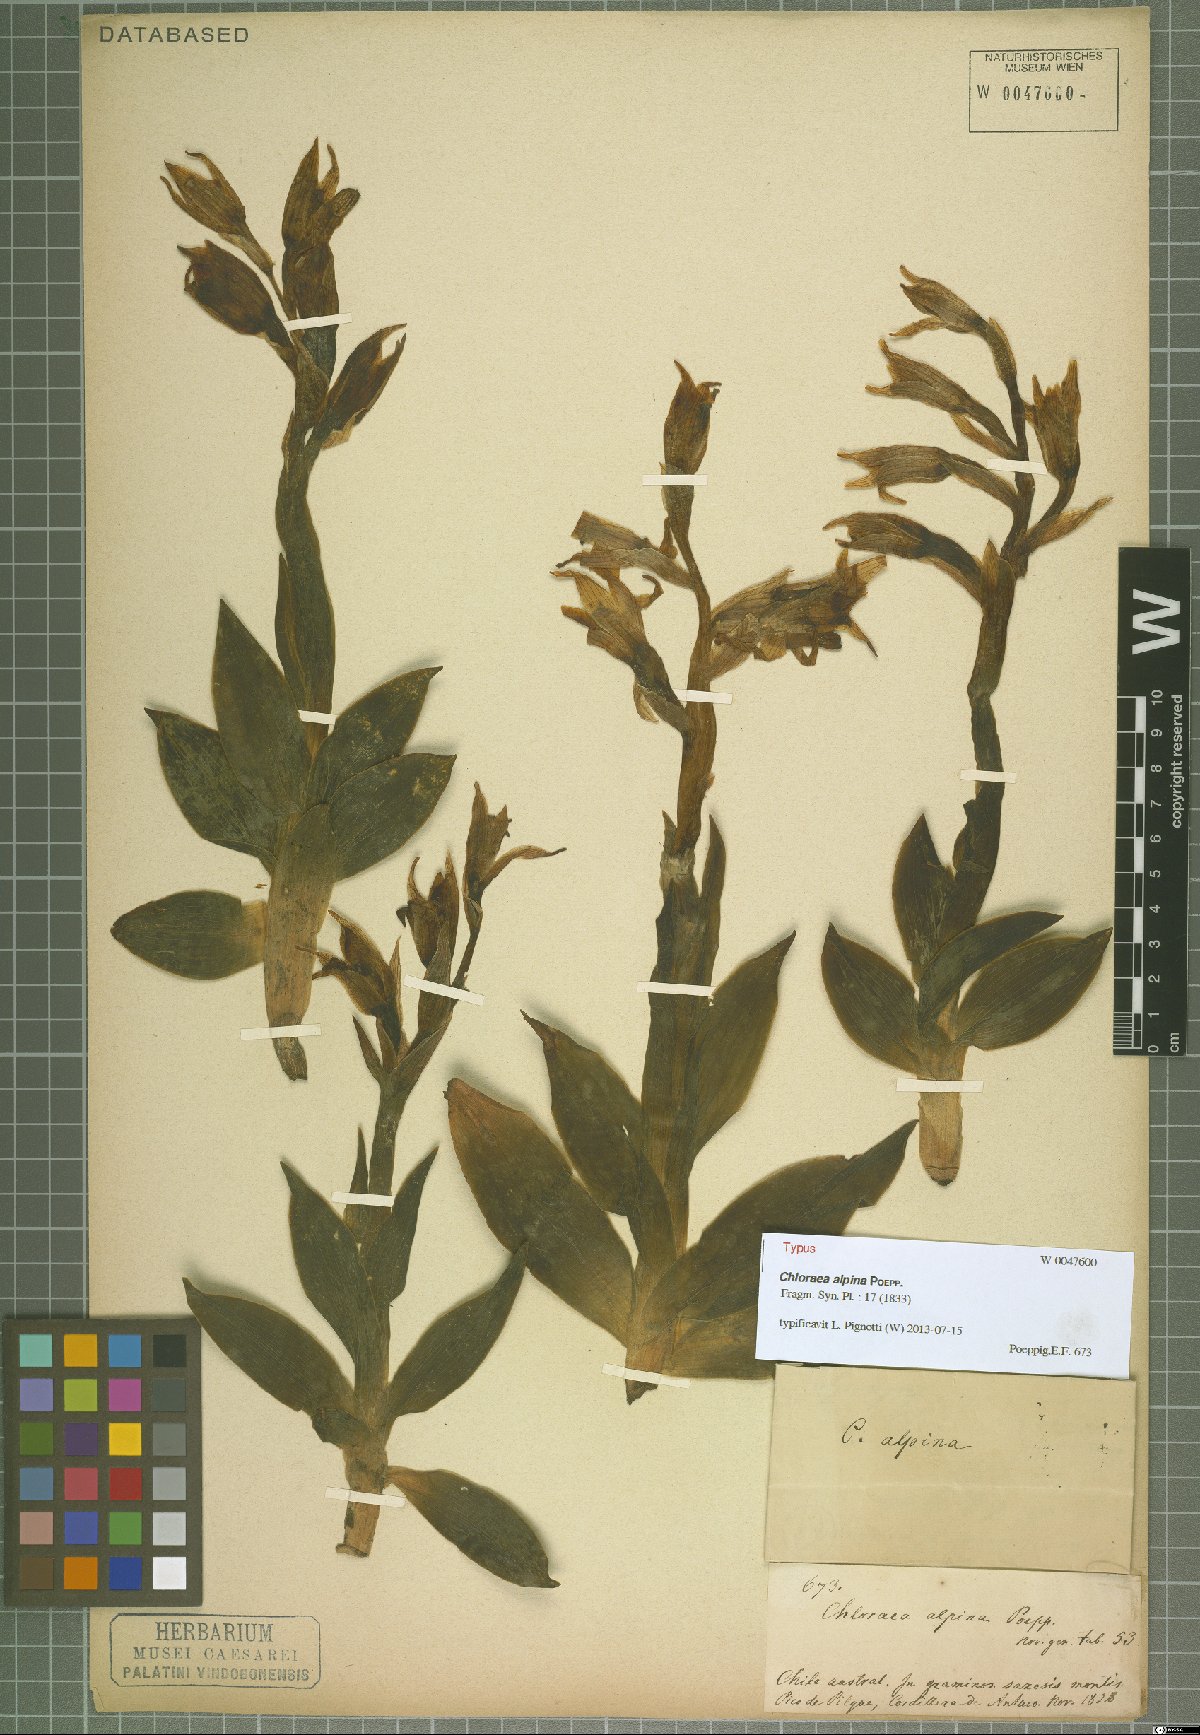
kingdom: Plantae
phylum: Tracheophyta
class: Liliopsida
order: Asparagales
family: Orchidaceae
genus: Chloraea
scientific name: Chloraea alpina
